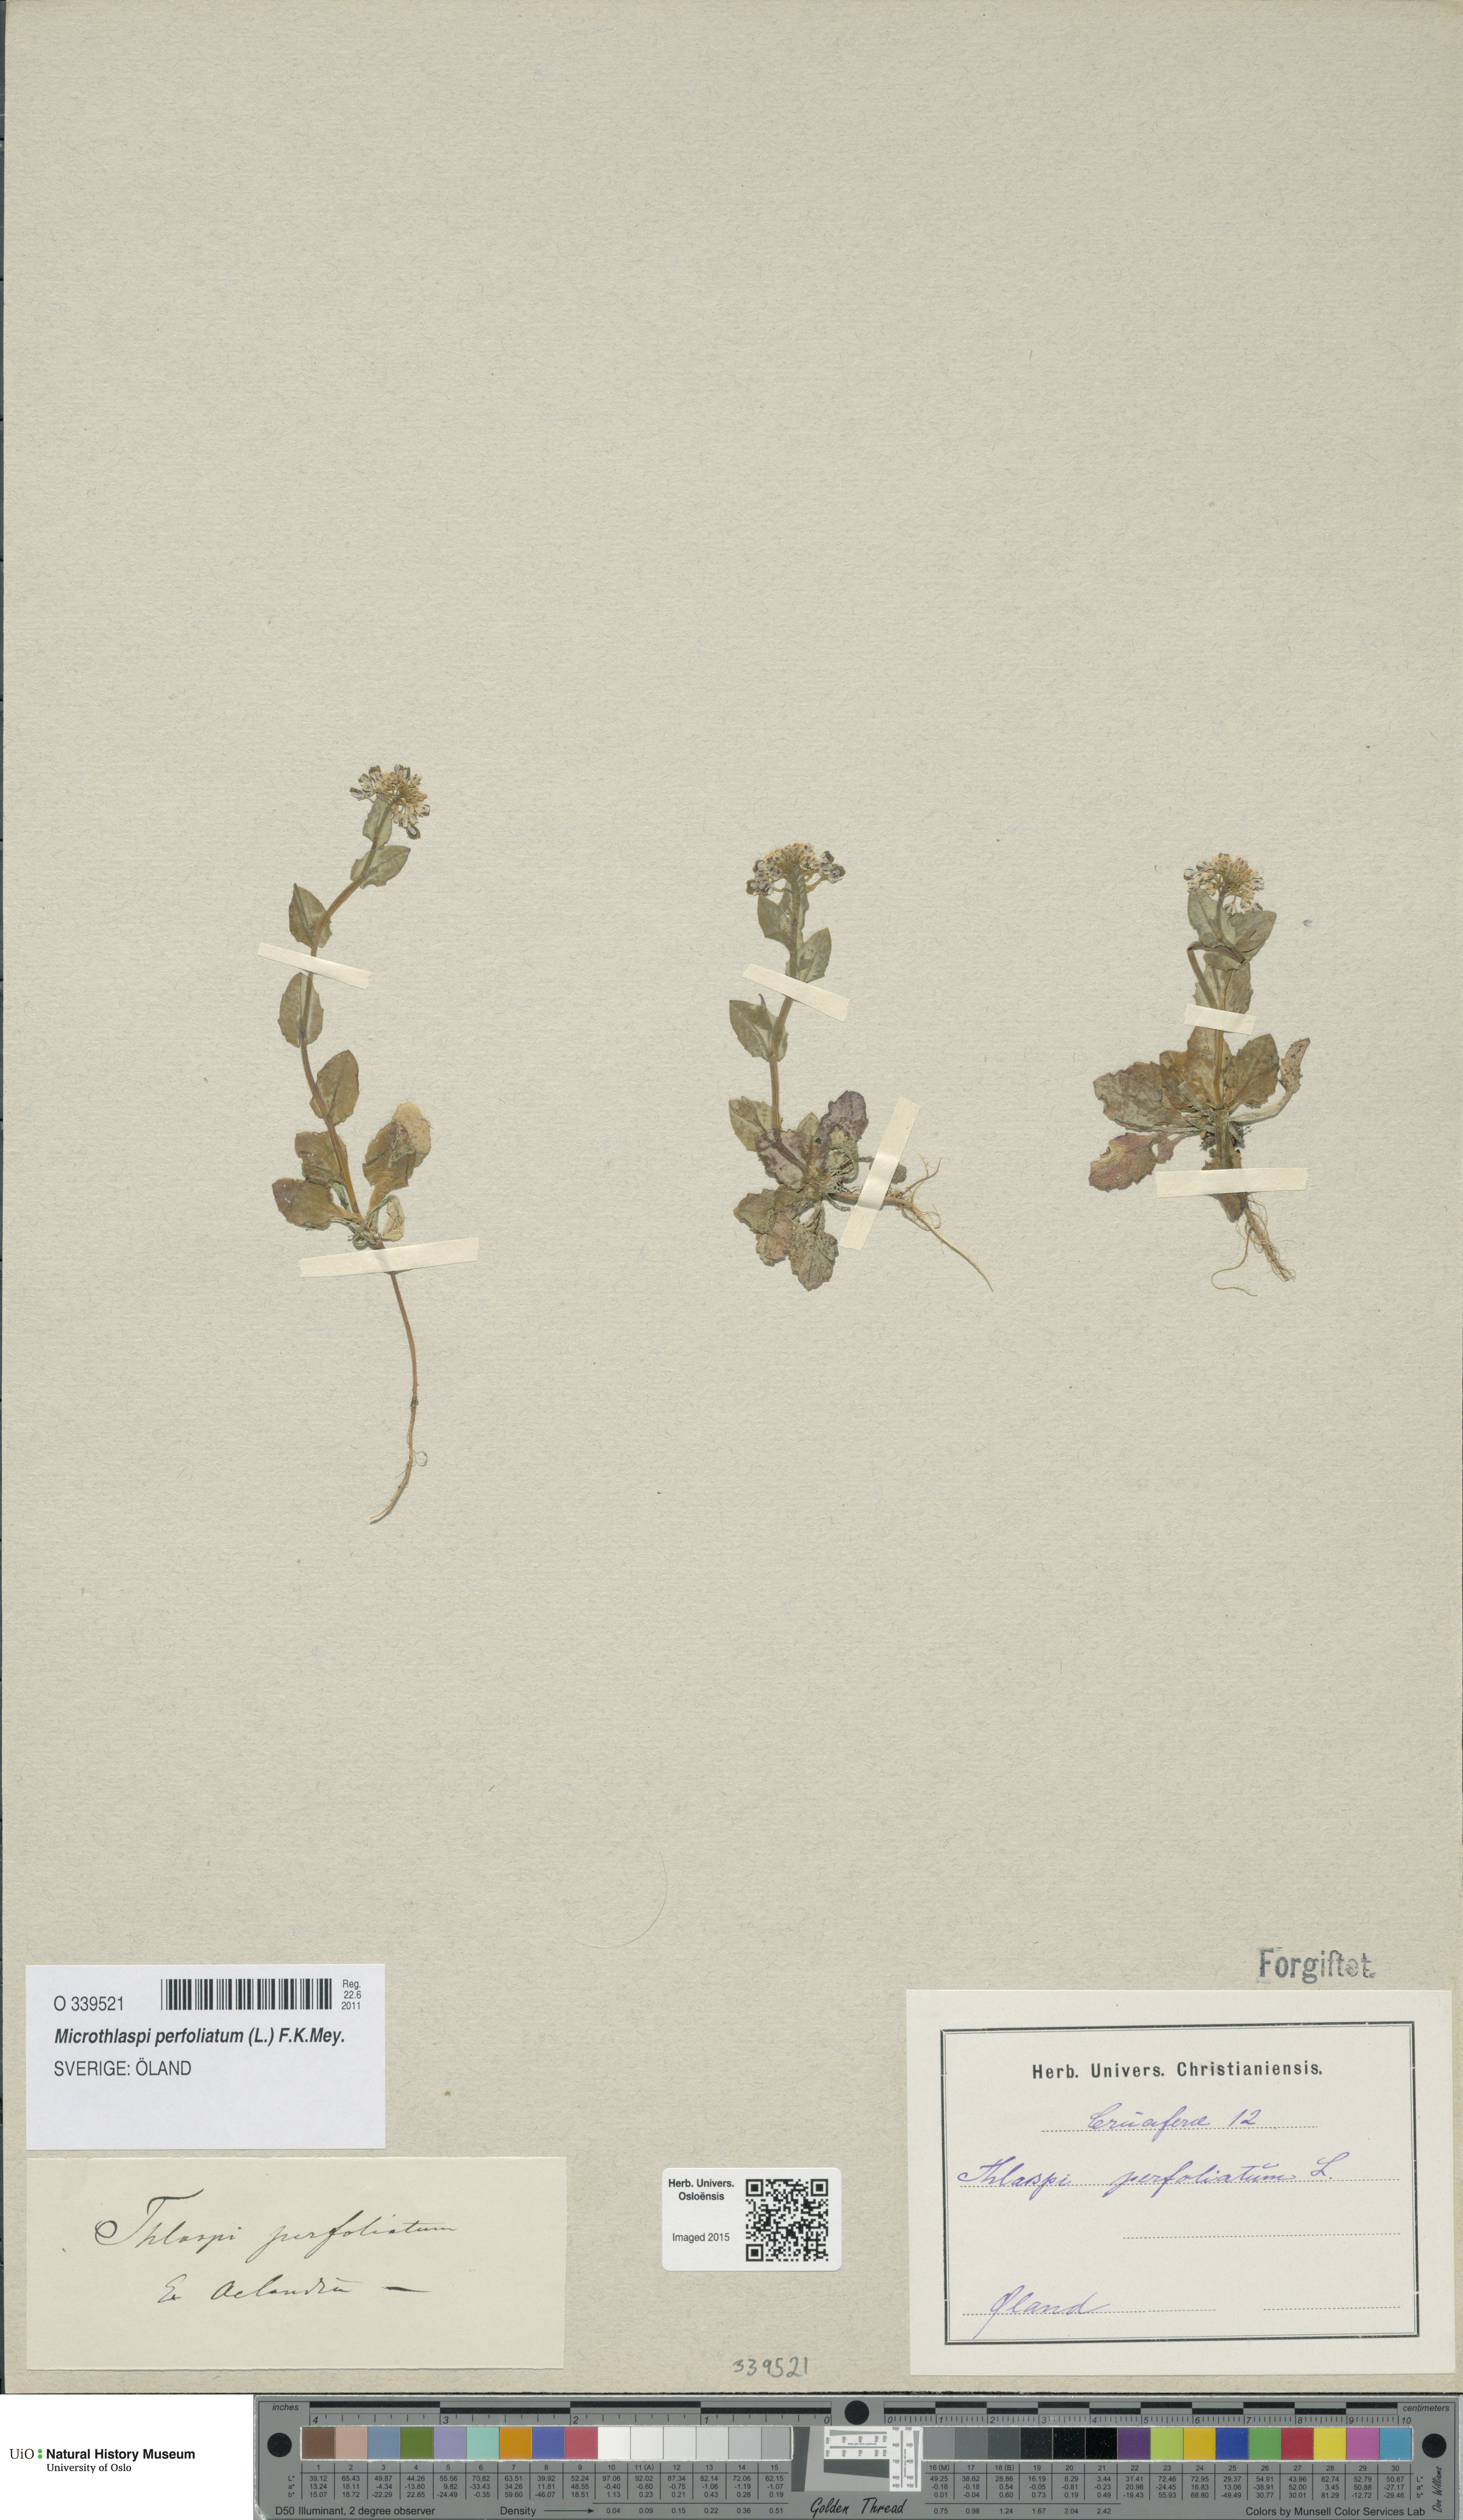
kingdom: Plantae
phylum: Tracheophyta
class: Magnoliopsida
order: Brassicales
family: Brassicaceae
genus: Noccaea
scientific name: Noccaea perfoliata
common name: Perfoliate pennycress
